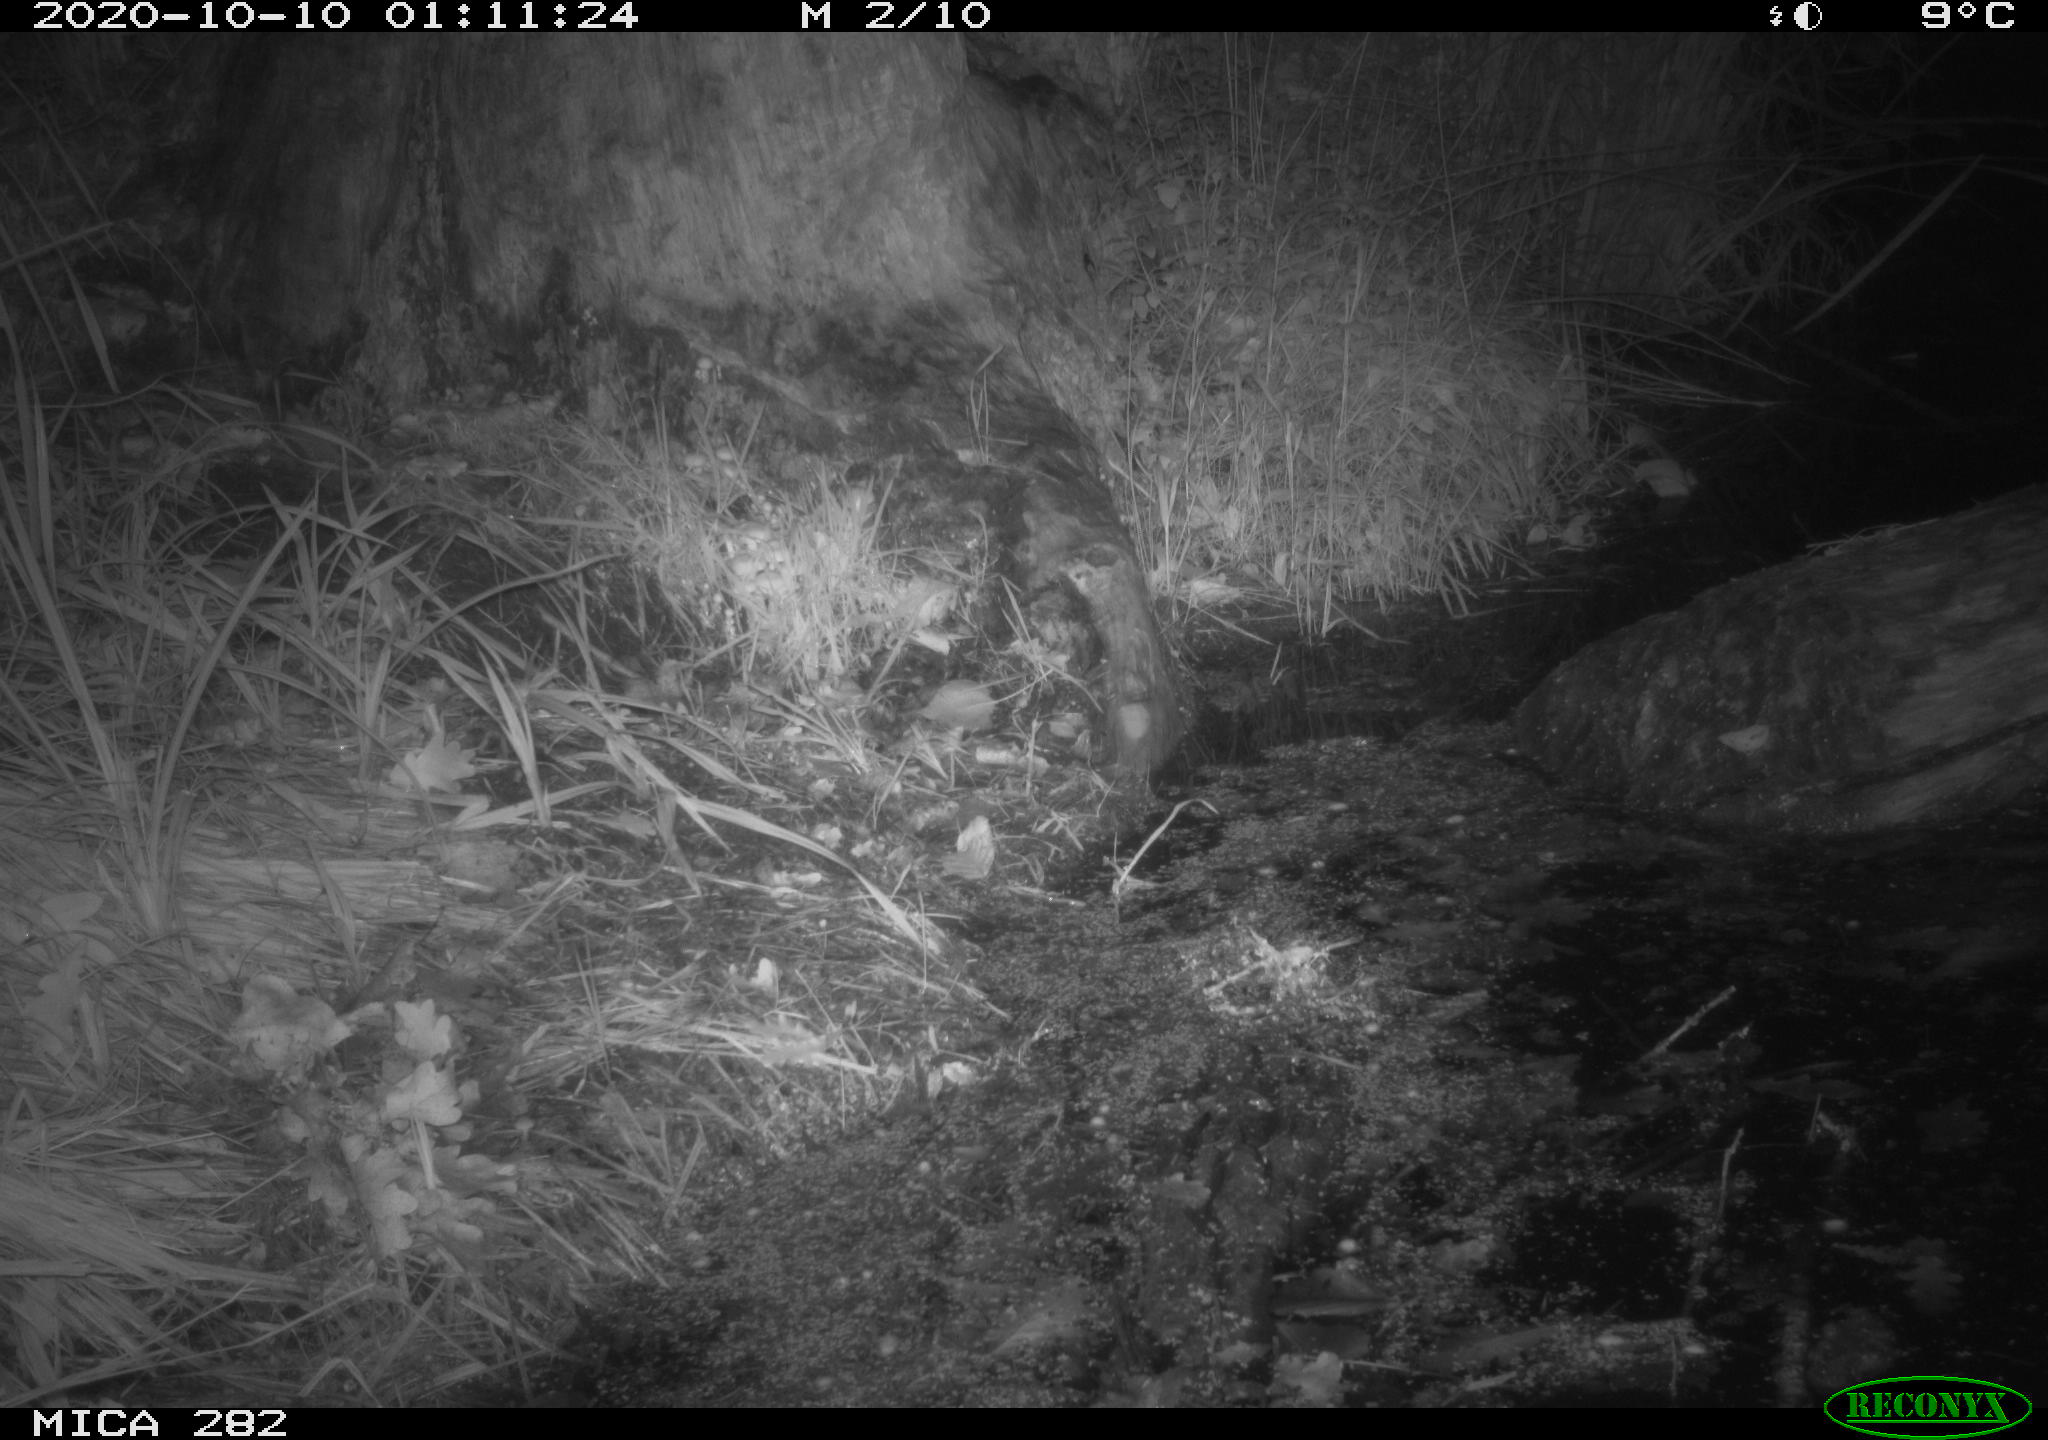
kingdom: Animalia
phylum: Chordata
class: Mammalia
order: Soricomorpha
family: Soricidae
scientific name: Soricidae
